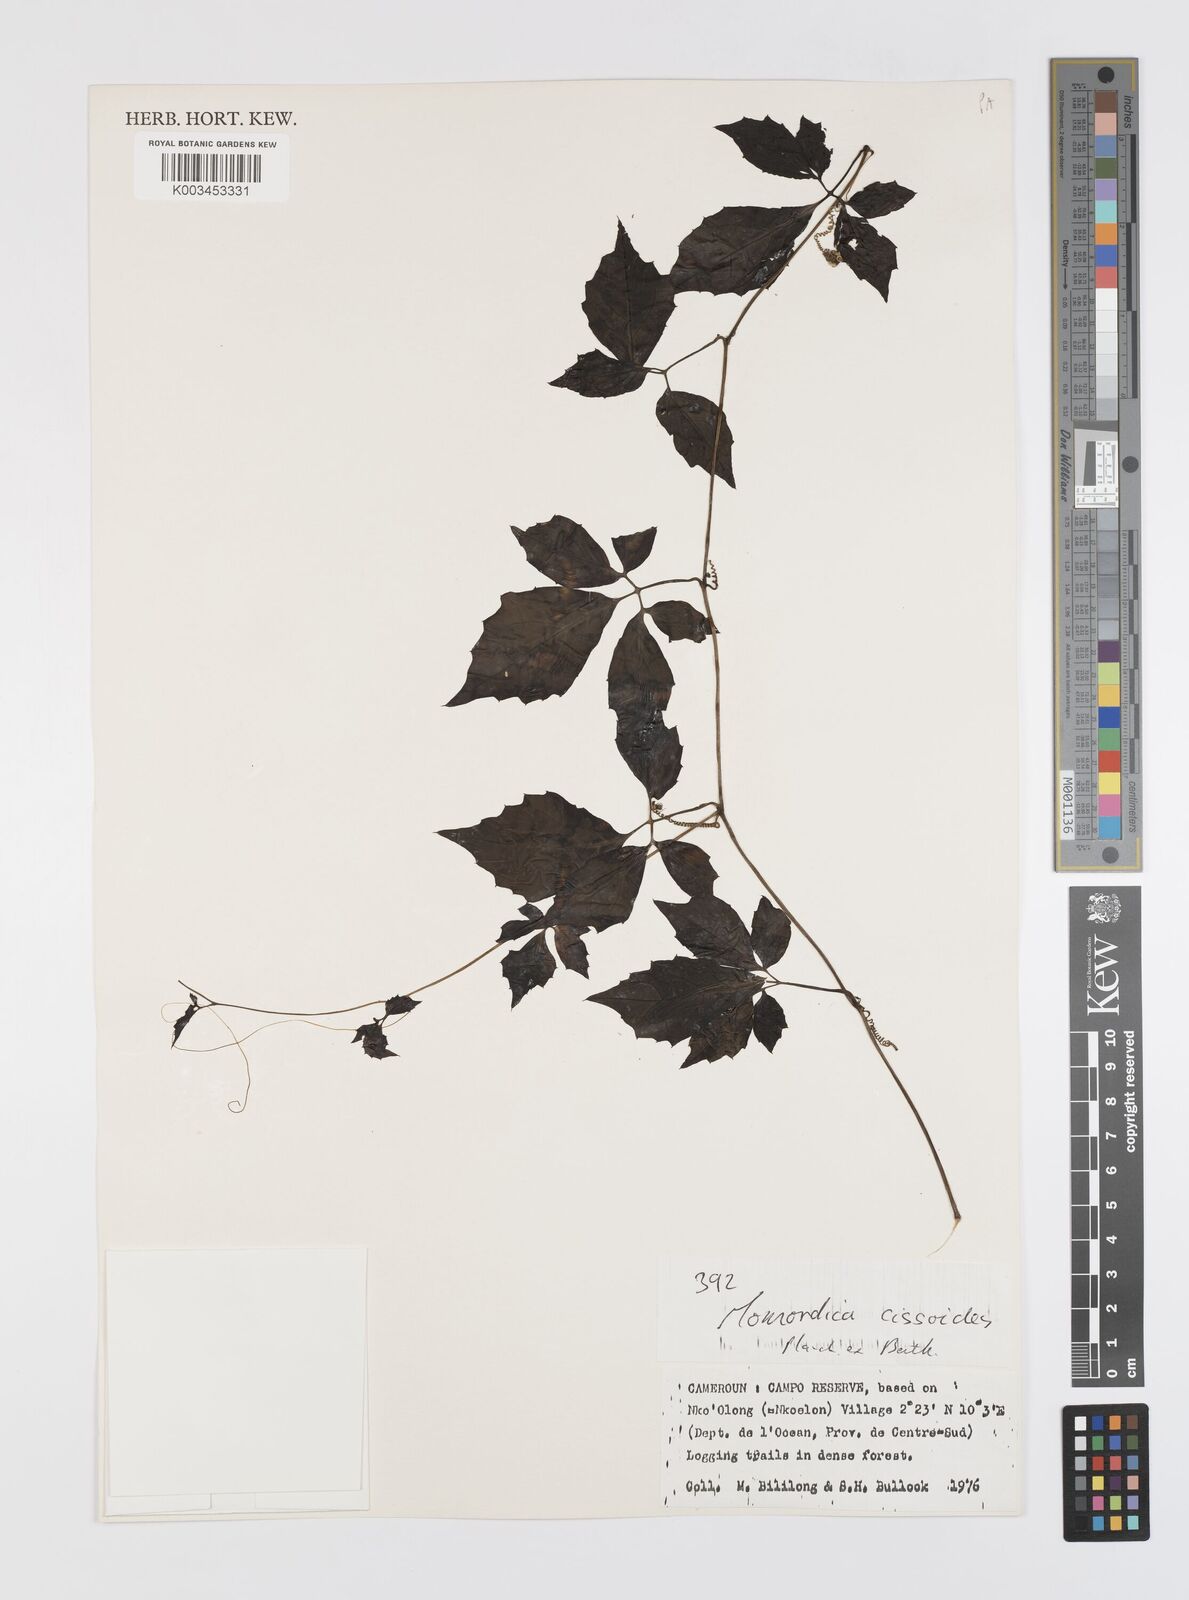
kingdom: Plantae
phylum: Tracheophyta
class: Magnoliopsida
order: Cucurbitales
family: Cucurbitaceae
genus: Momordica
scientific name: Momordica cissoides
